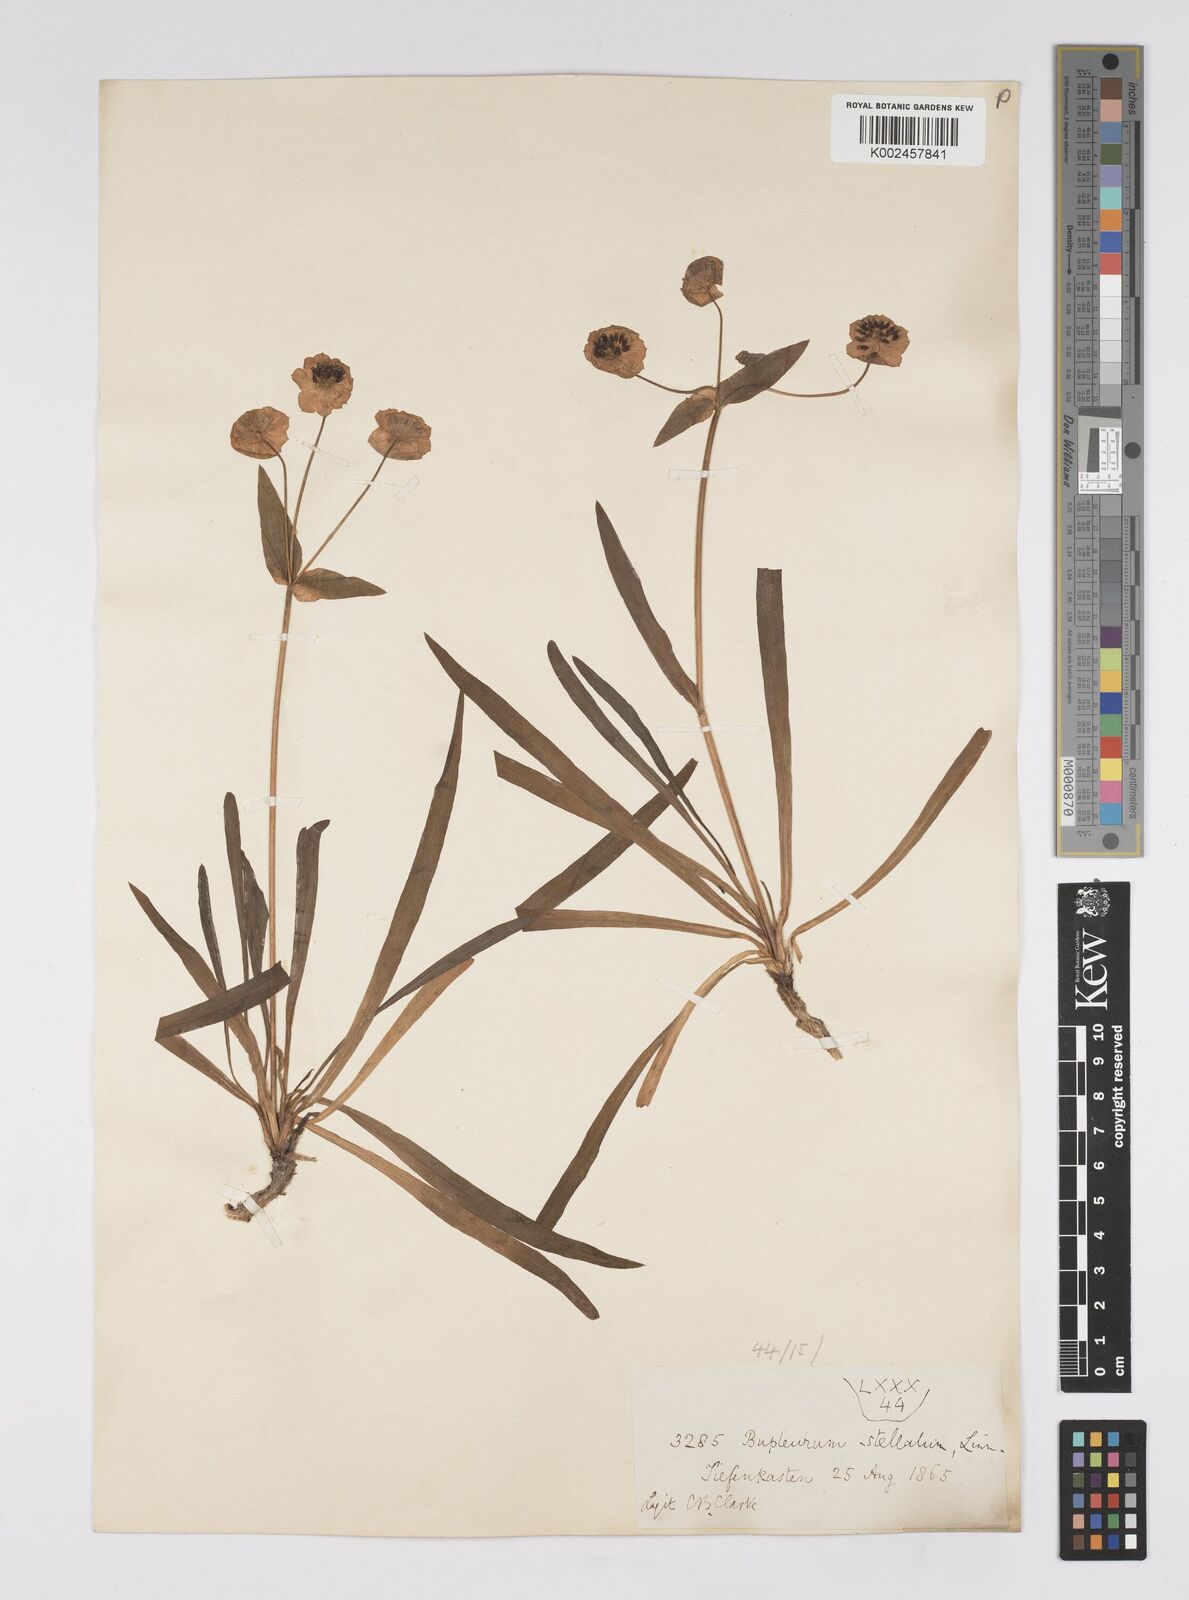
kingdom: Plantae
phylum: Tracheophyta
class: Magnoliopsida
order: Apiales
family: Apiaceae
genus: Bupleurum
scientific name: Bupleurum stellatum
